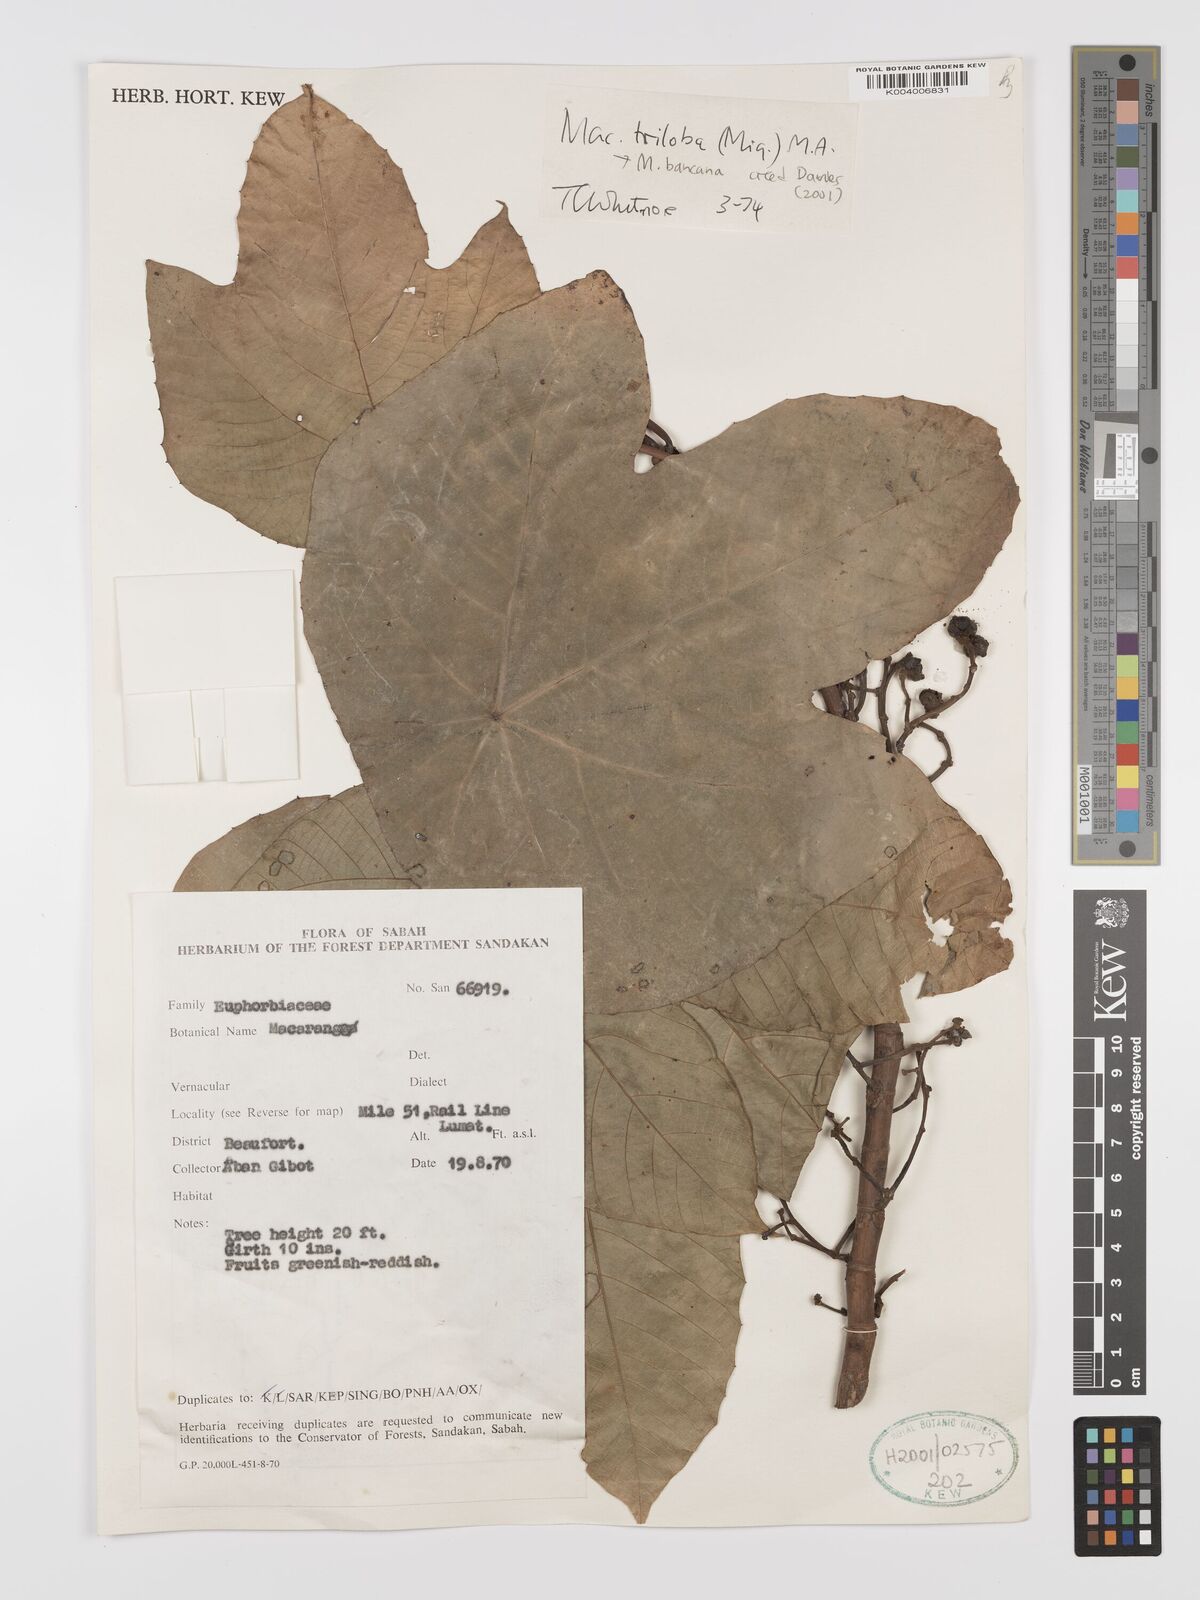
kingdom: Plantae
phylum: Tracheophyta
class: Magnoliopsida
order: Malpighiales
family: Euphorbiaceae
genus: Macaranga
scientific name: Macaranga triloba
